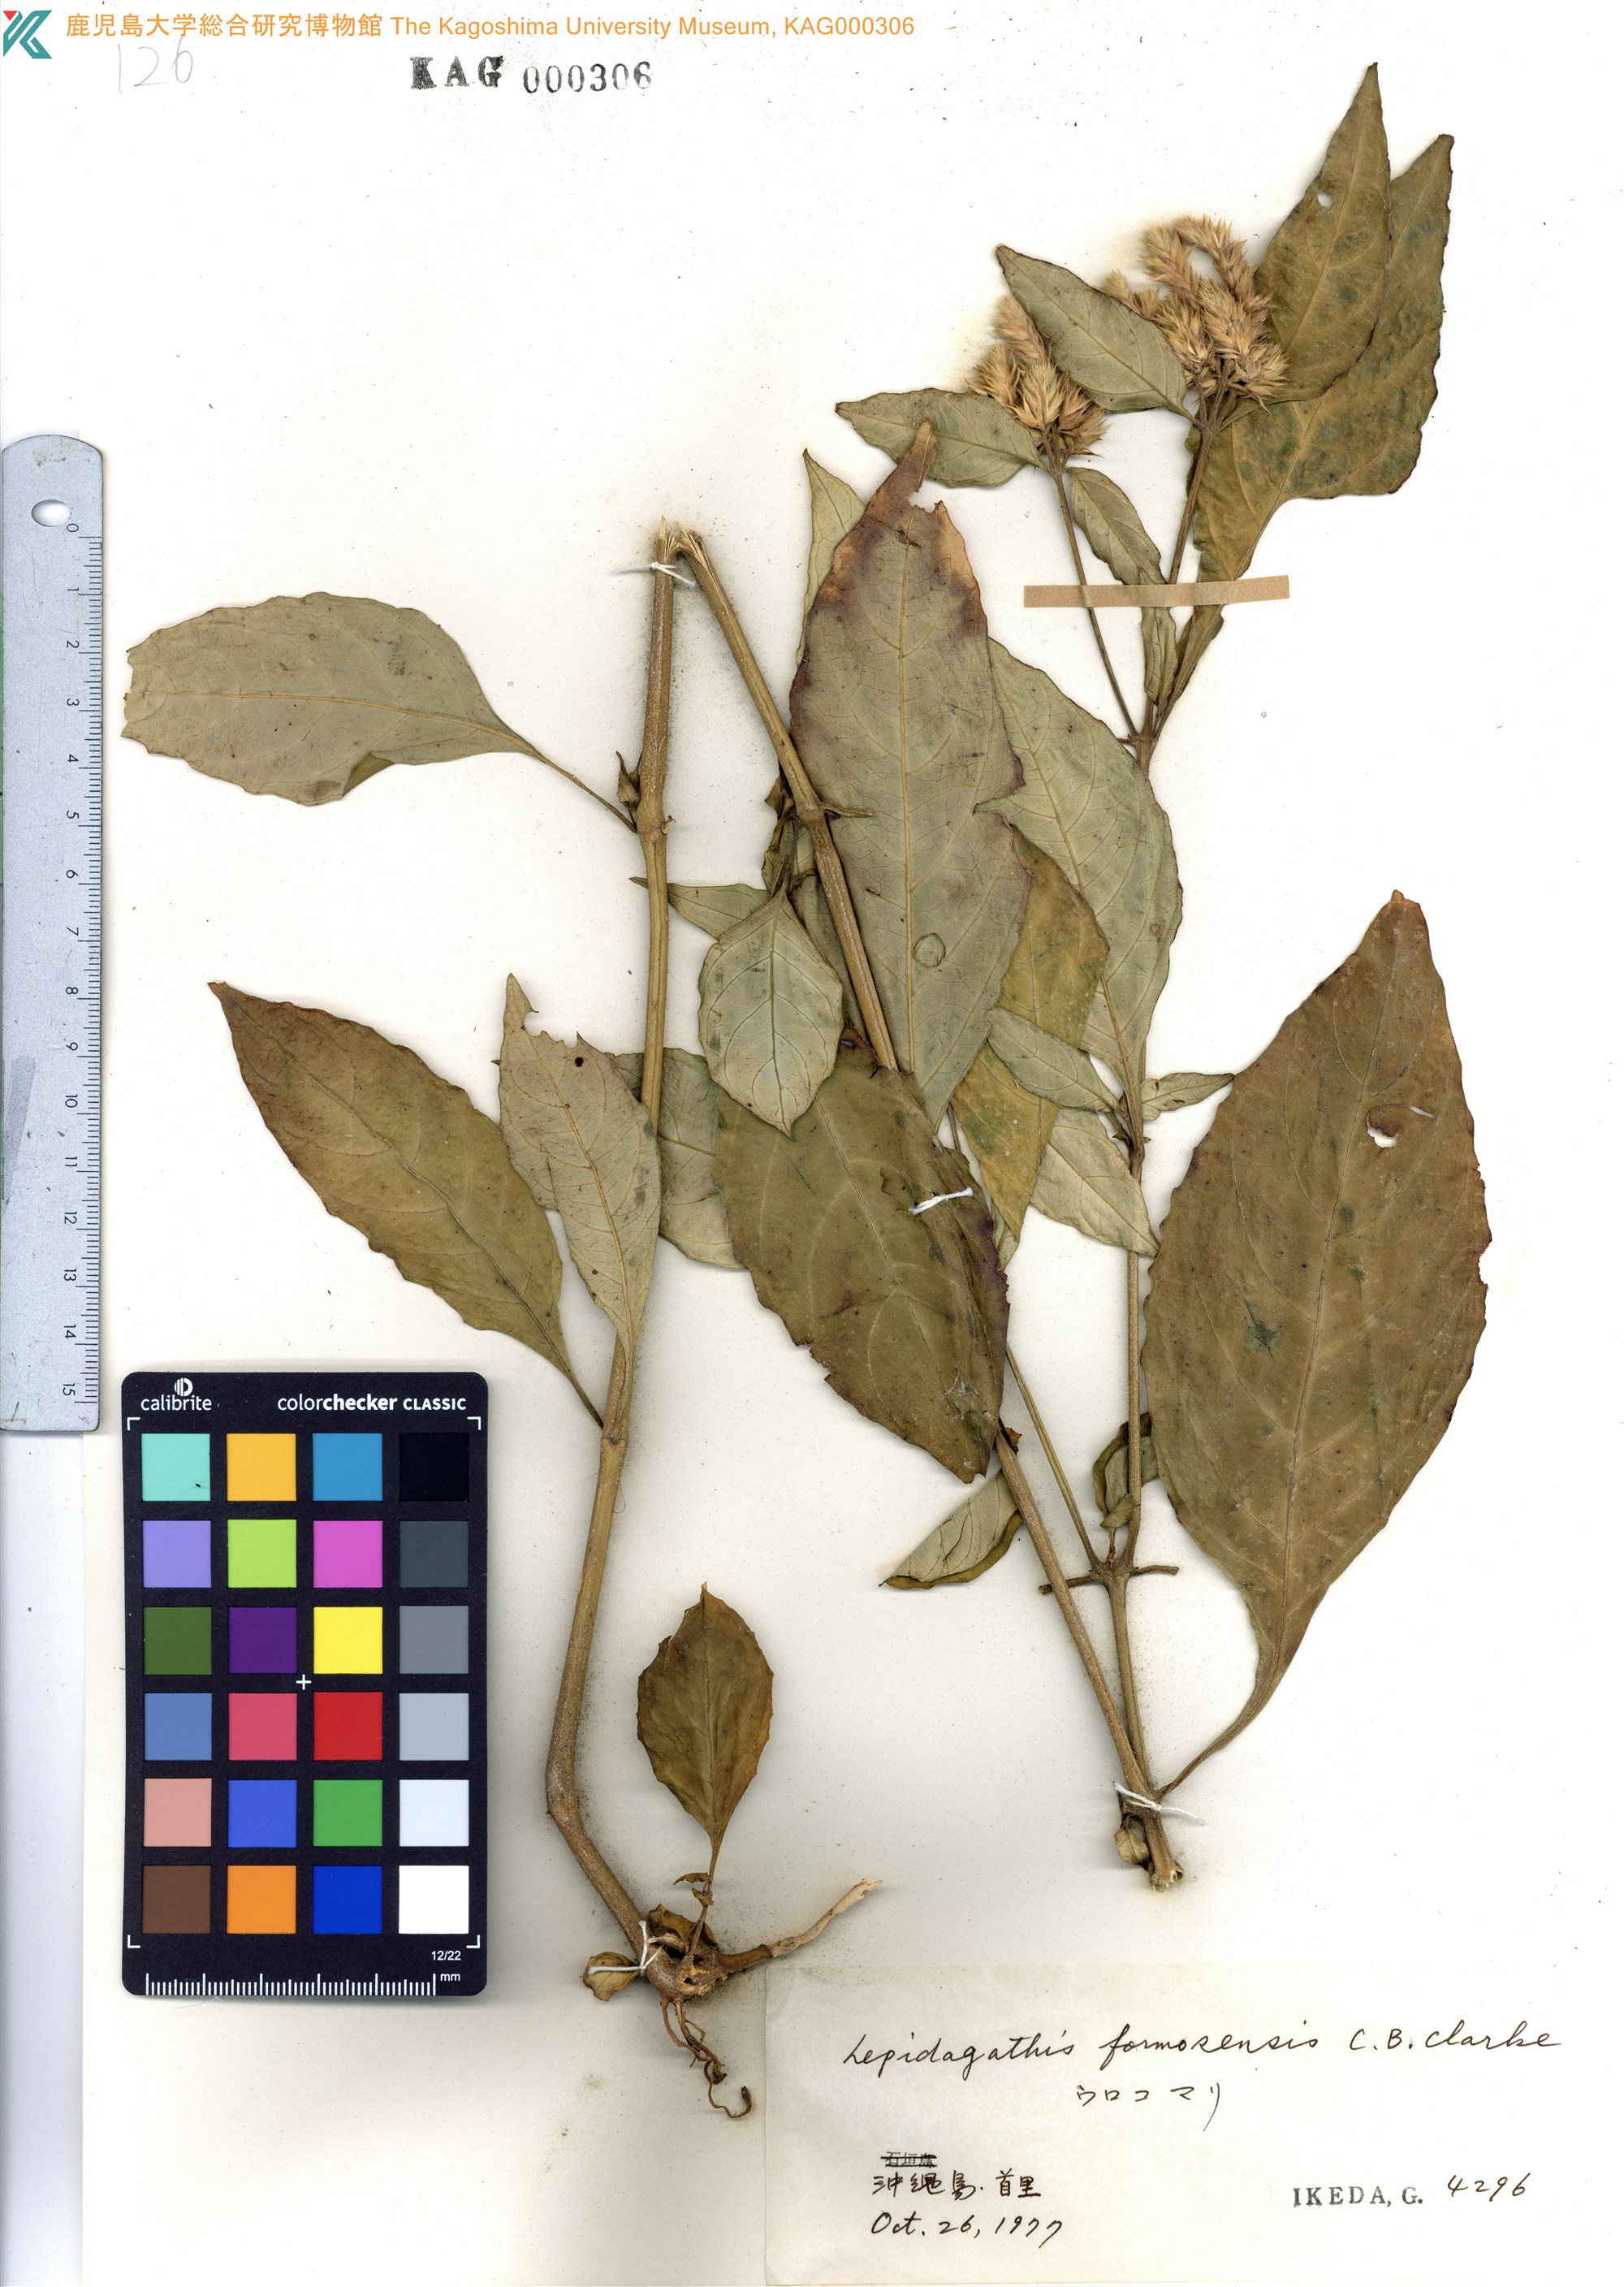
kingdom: Plantae
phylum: Tracheophyta
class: Magnoliopsida
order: Lamiales
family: Acanthaceae
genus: Lepidagathis
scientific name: Lepidagathis formosensis
